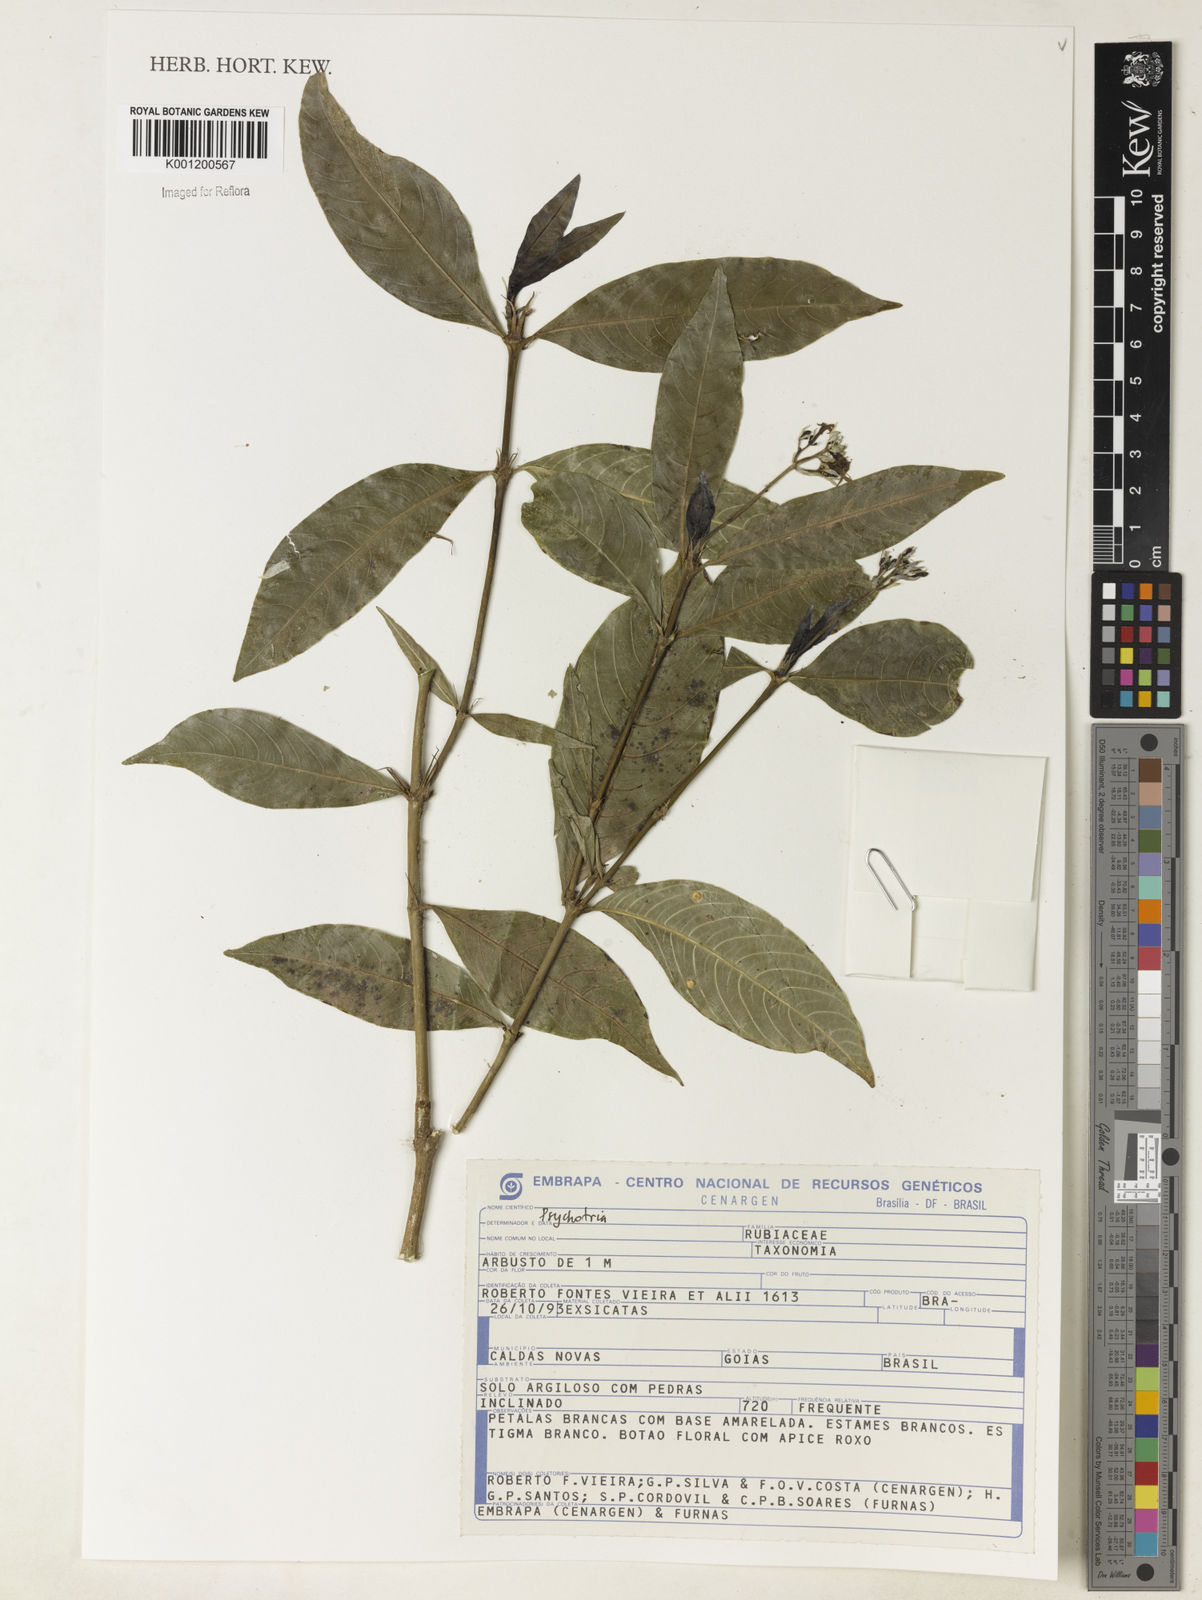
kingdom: Plantae
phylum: Tracheophyta
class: Magnoliopsida
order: Gentianales
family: Rubiaceae
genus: Psychotria
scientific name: Psychotria
